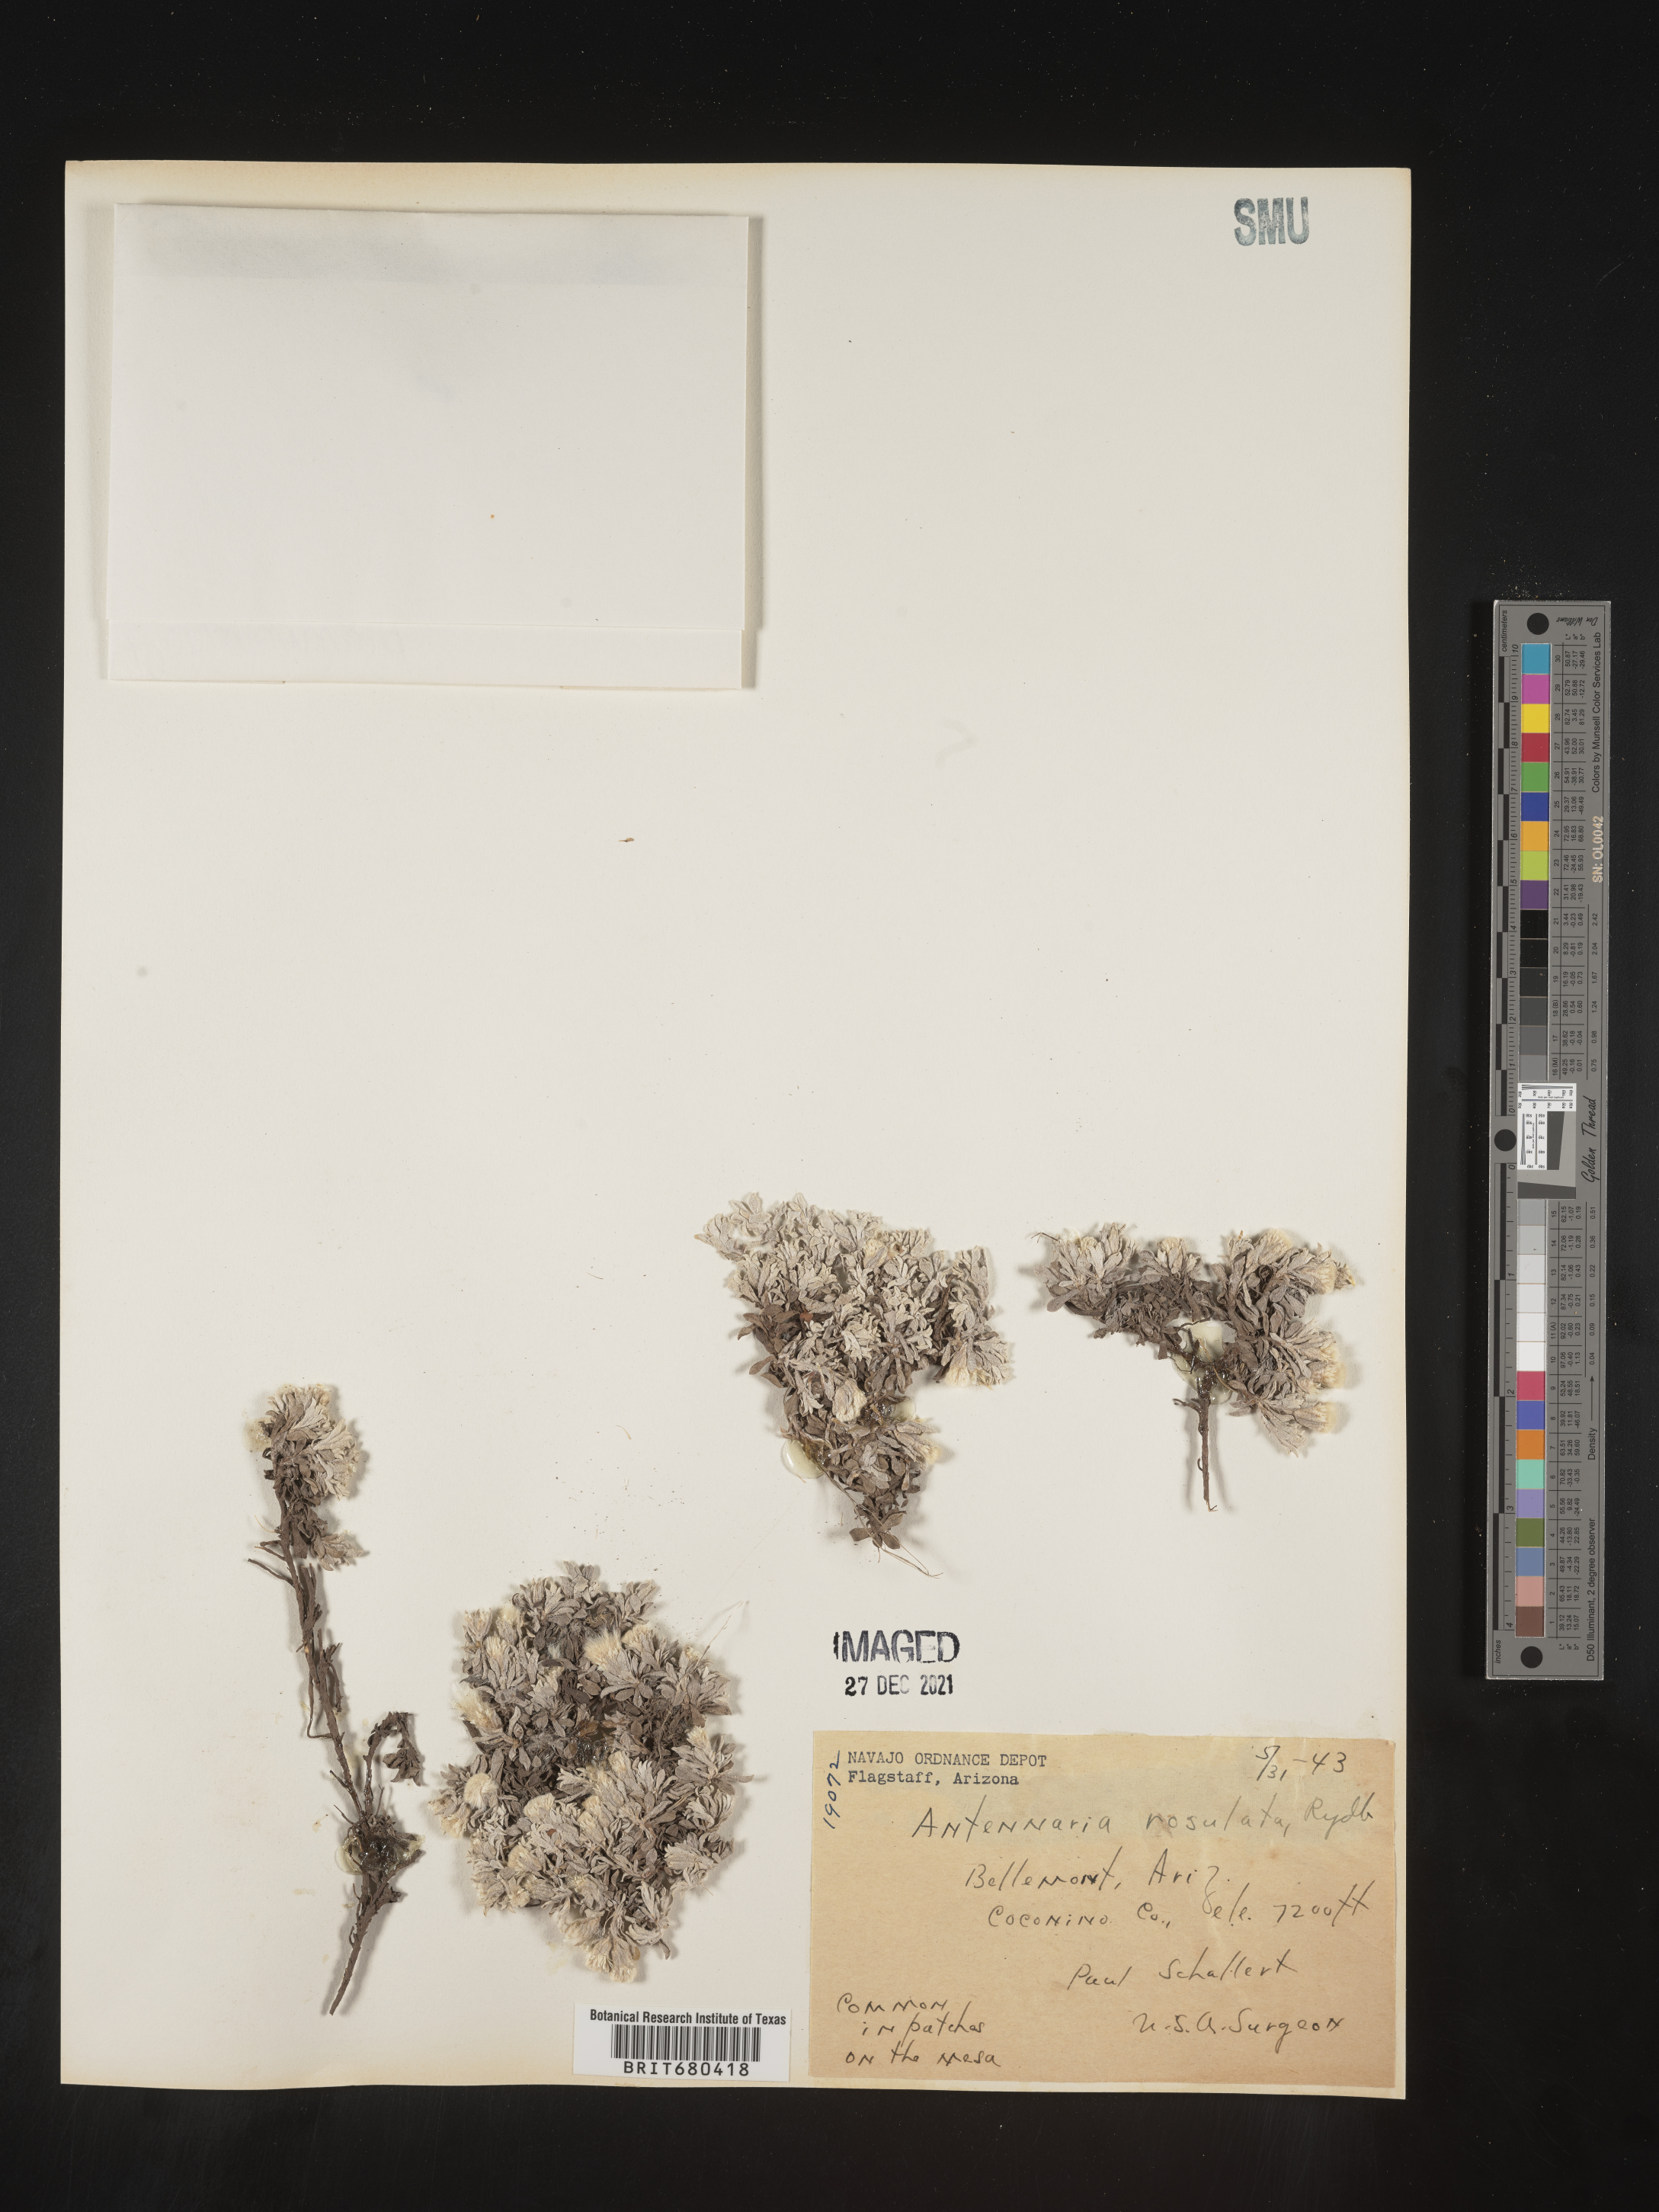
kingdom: Plantae
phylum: Tracheophyta
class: Magnoliopsida
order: Asterales
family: Asteraceae
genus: Antennaria
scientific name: Antennaria rosulata
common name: Woolly pussytoes
